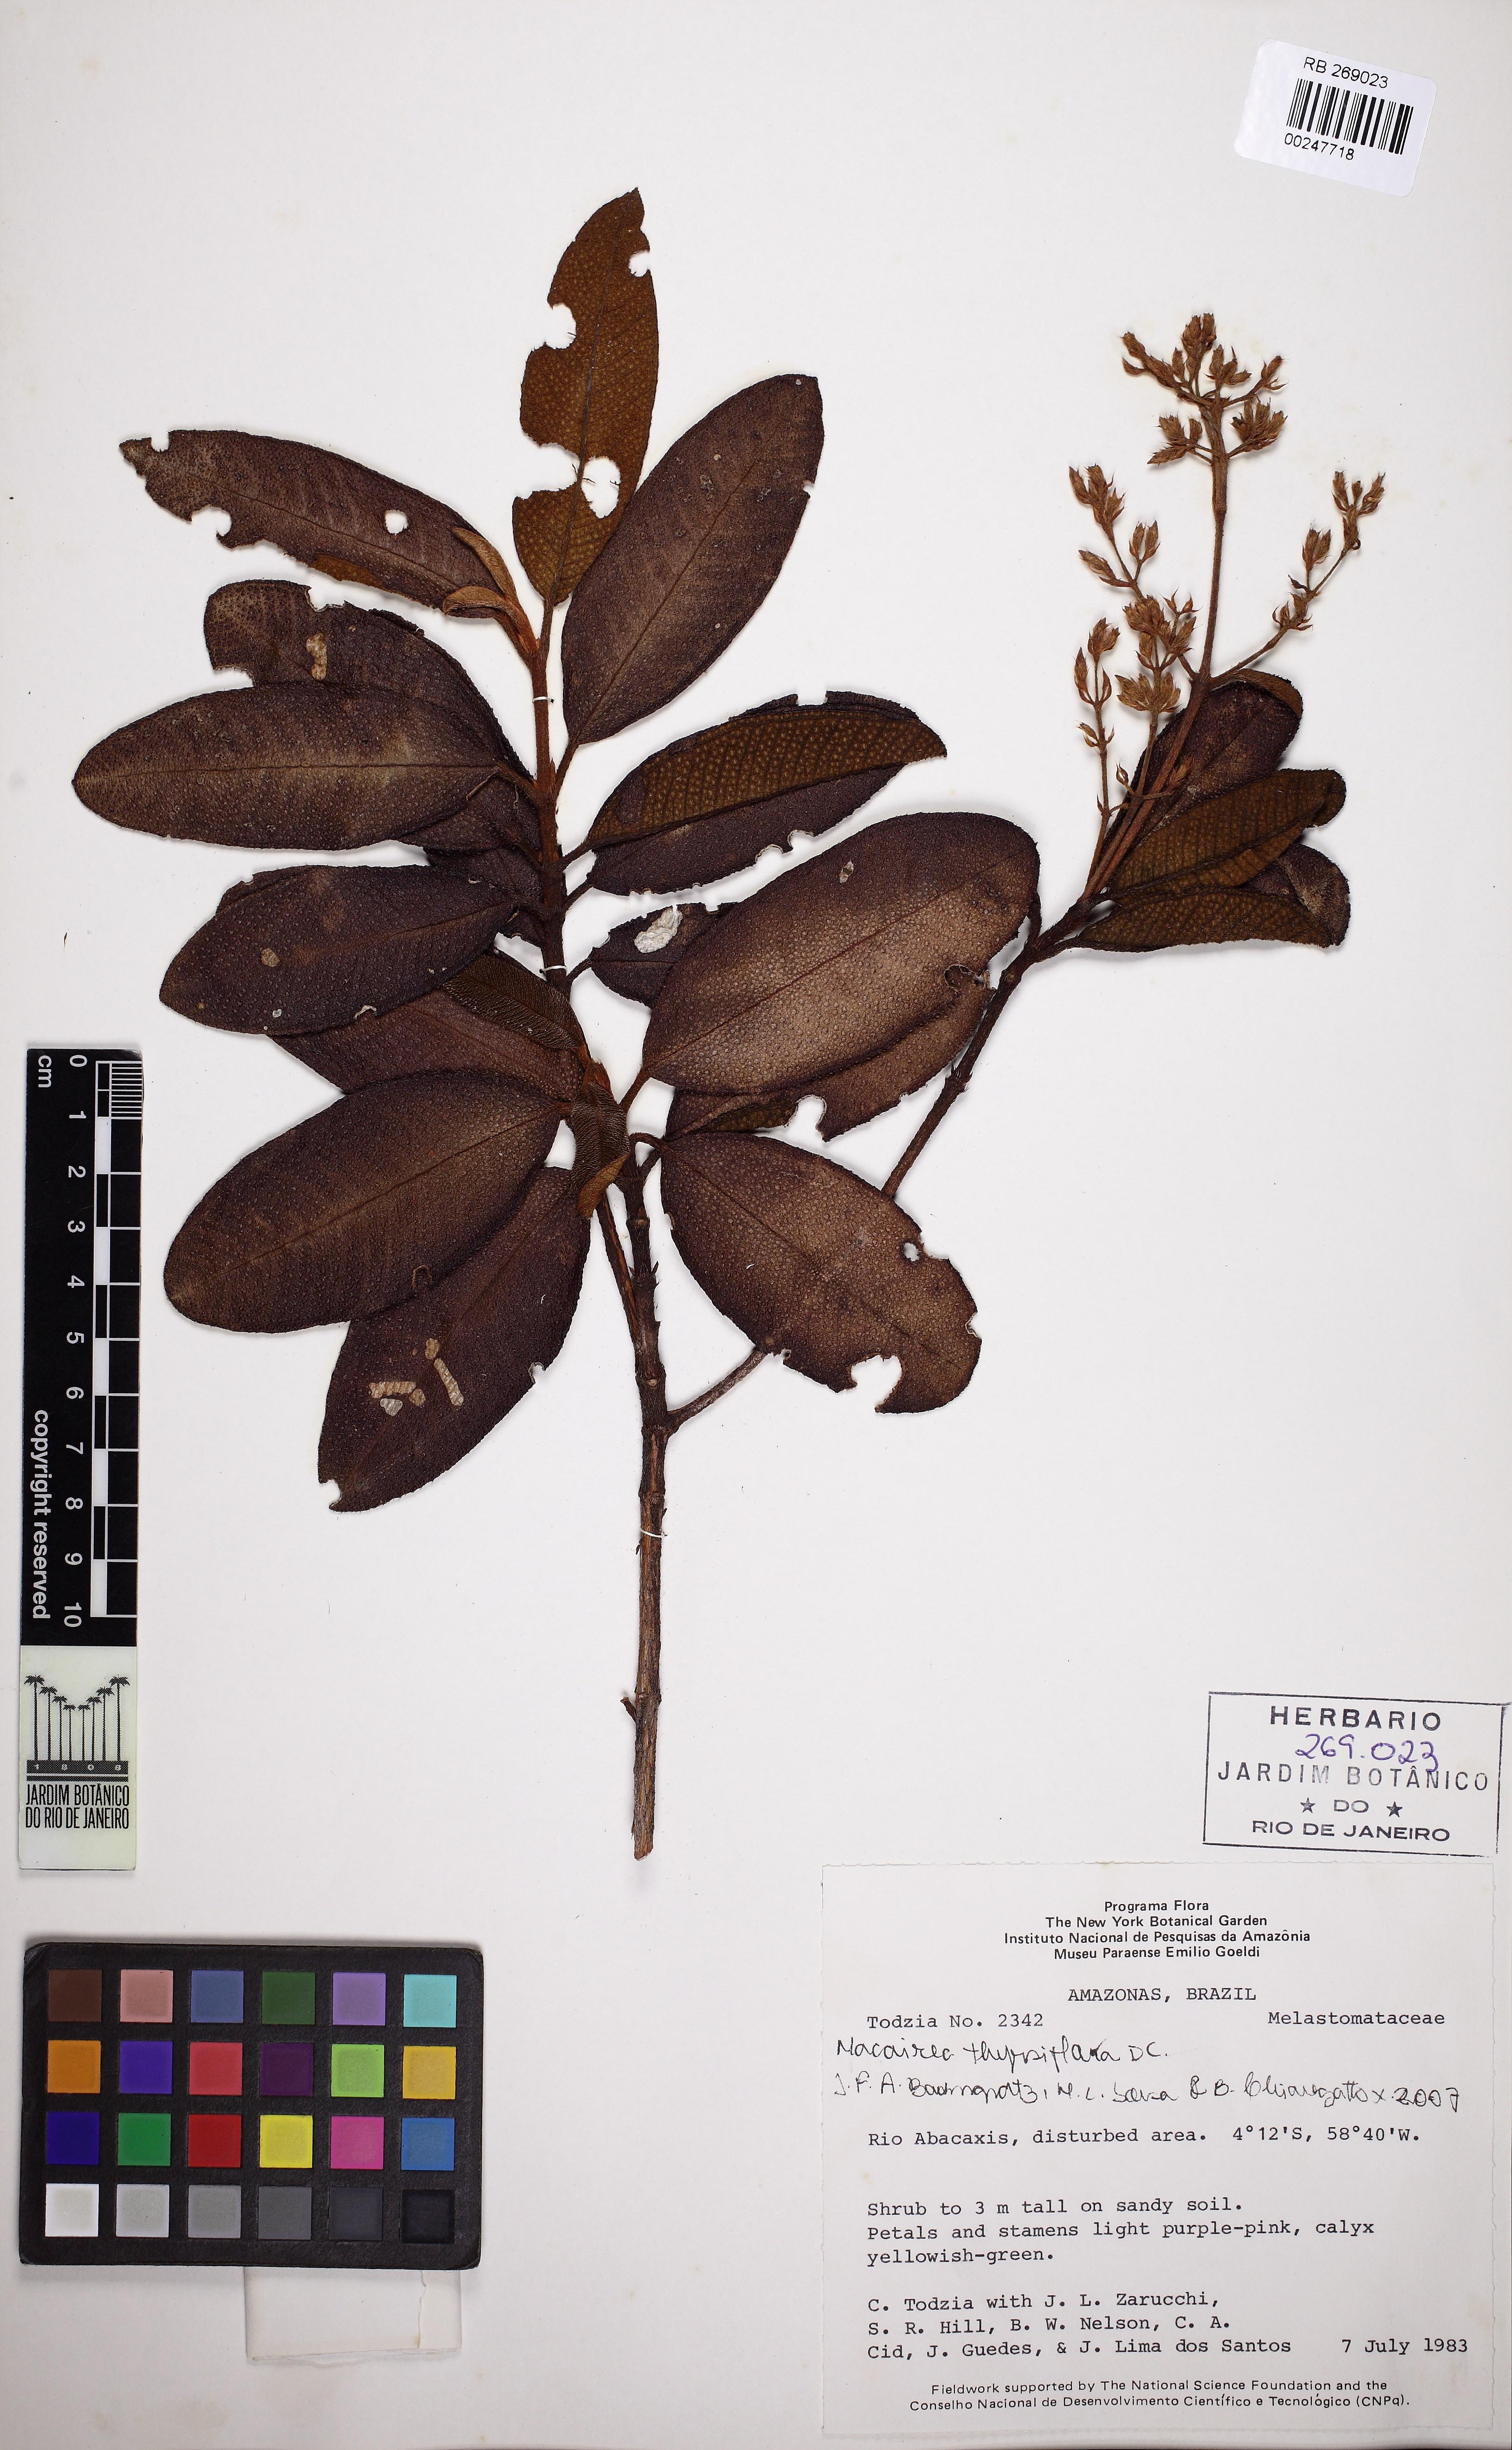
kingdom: Plantae
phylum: Tracheophyta
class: Magnoliopsida
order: Myrtales
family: Melastomataceae
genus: Macairea
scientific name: Macairea thyrsiflora
